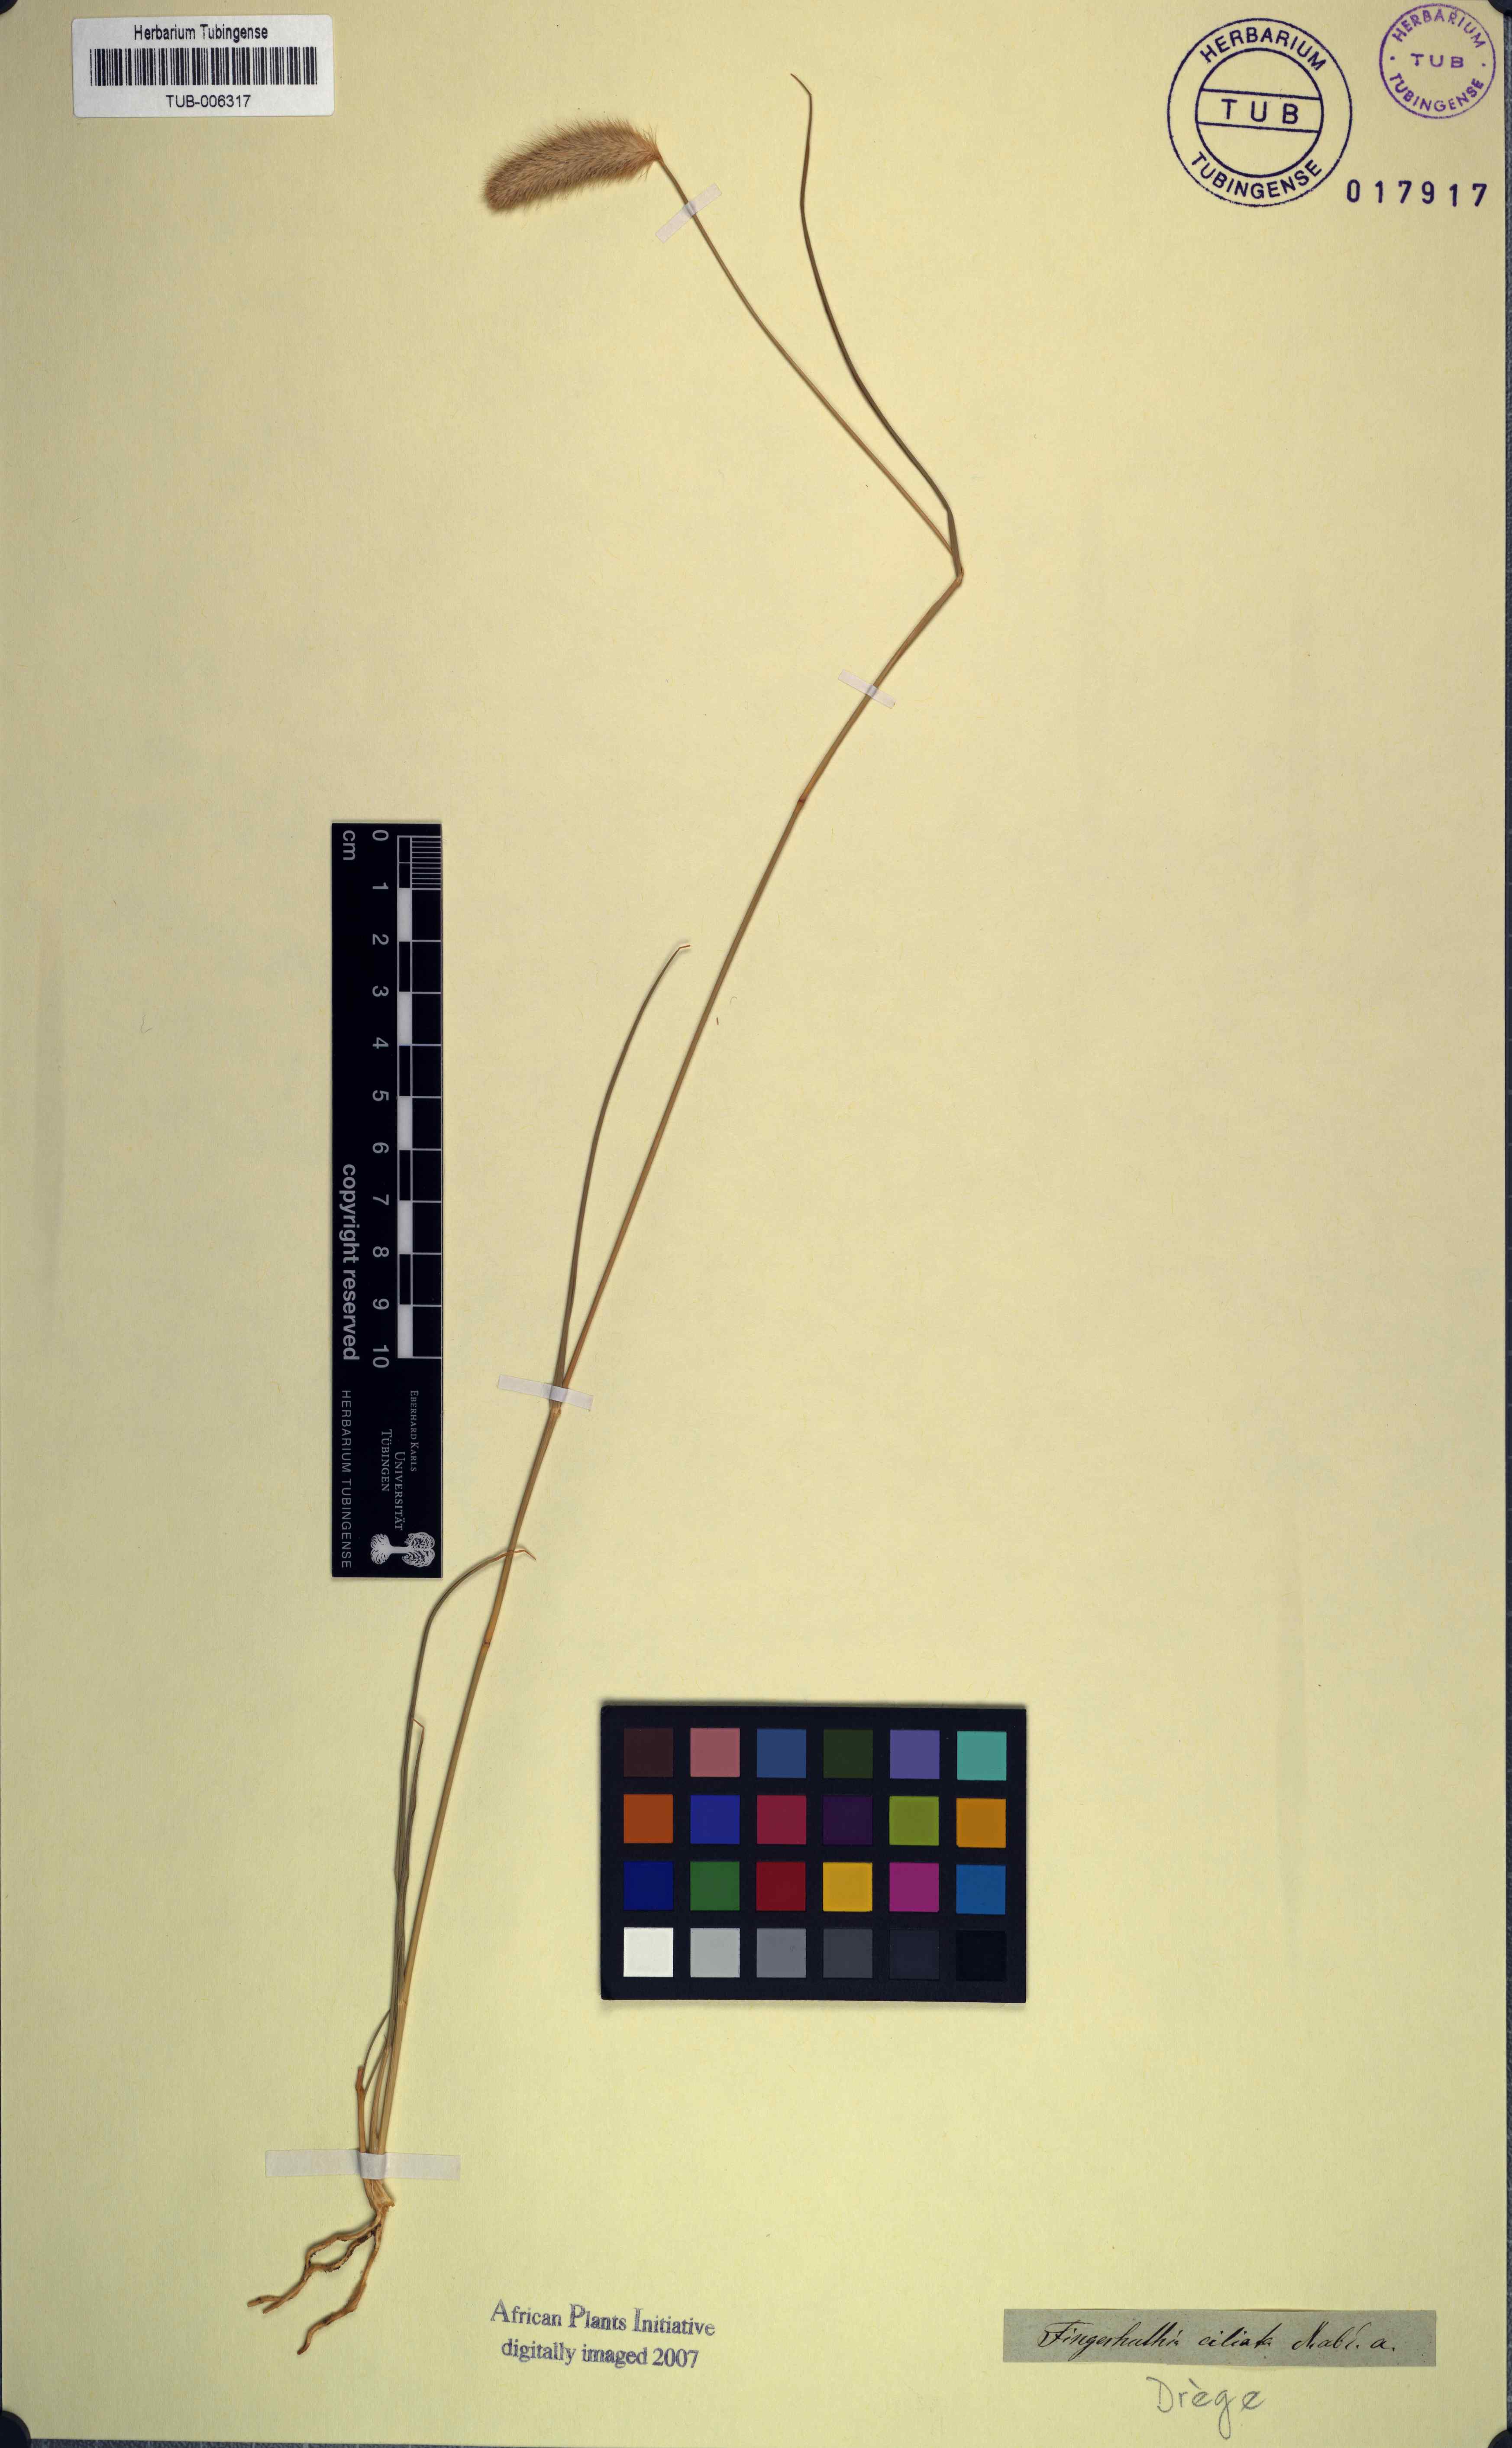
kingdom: Plantae
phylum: Tracheophyta
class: Liliopsida
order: Poales
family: Poaceae
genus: Fingerhuthia
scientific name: Fingerhuthia africana
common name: Zulu fescue
